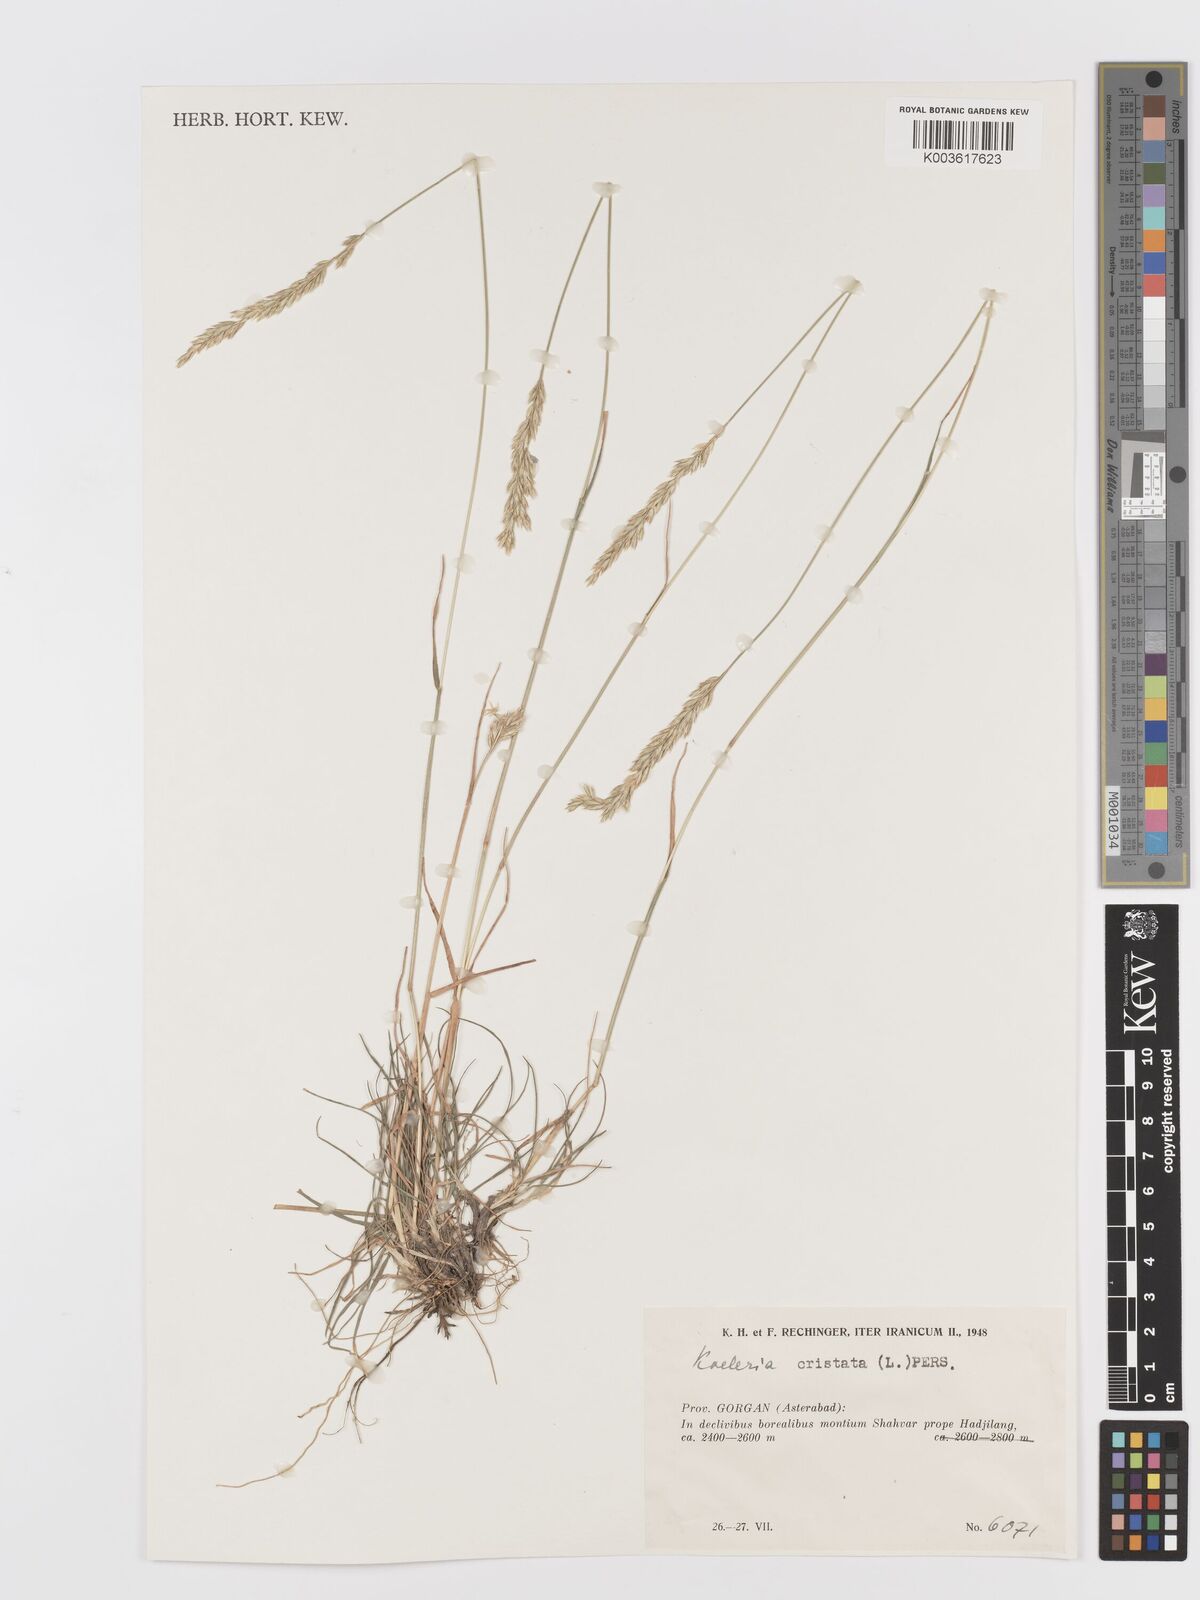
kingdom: Plantae
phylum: Tracheophyta
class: Liliopsida
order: Poales
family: Poaceae
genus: Koeleria
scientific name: Koeleria macrantha
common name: Crested hair-grass
